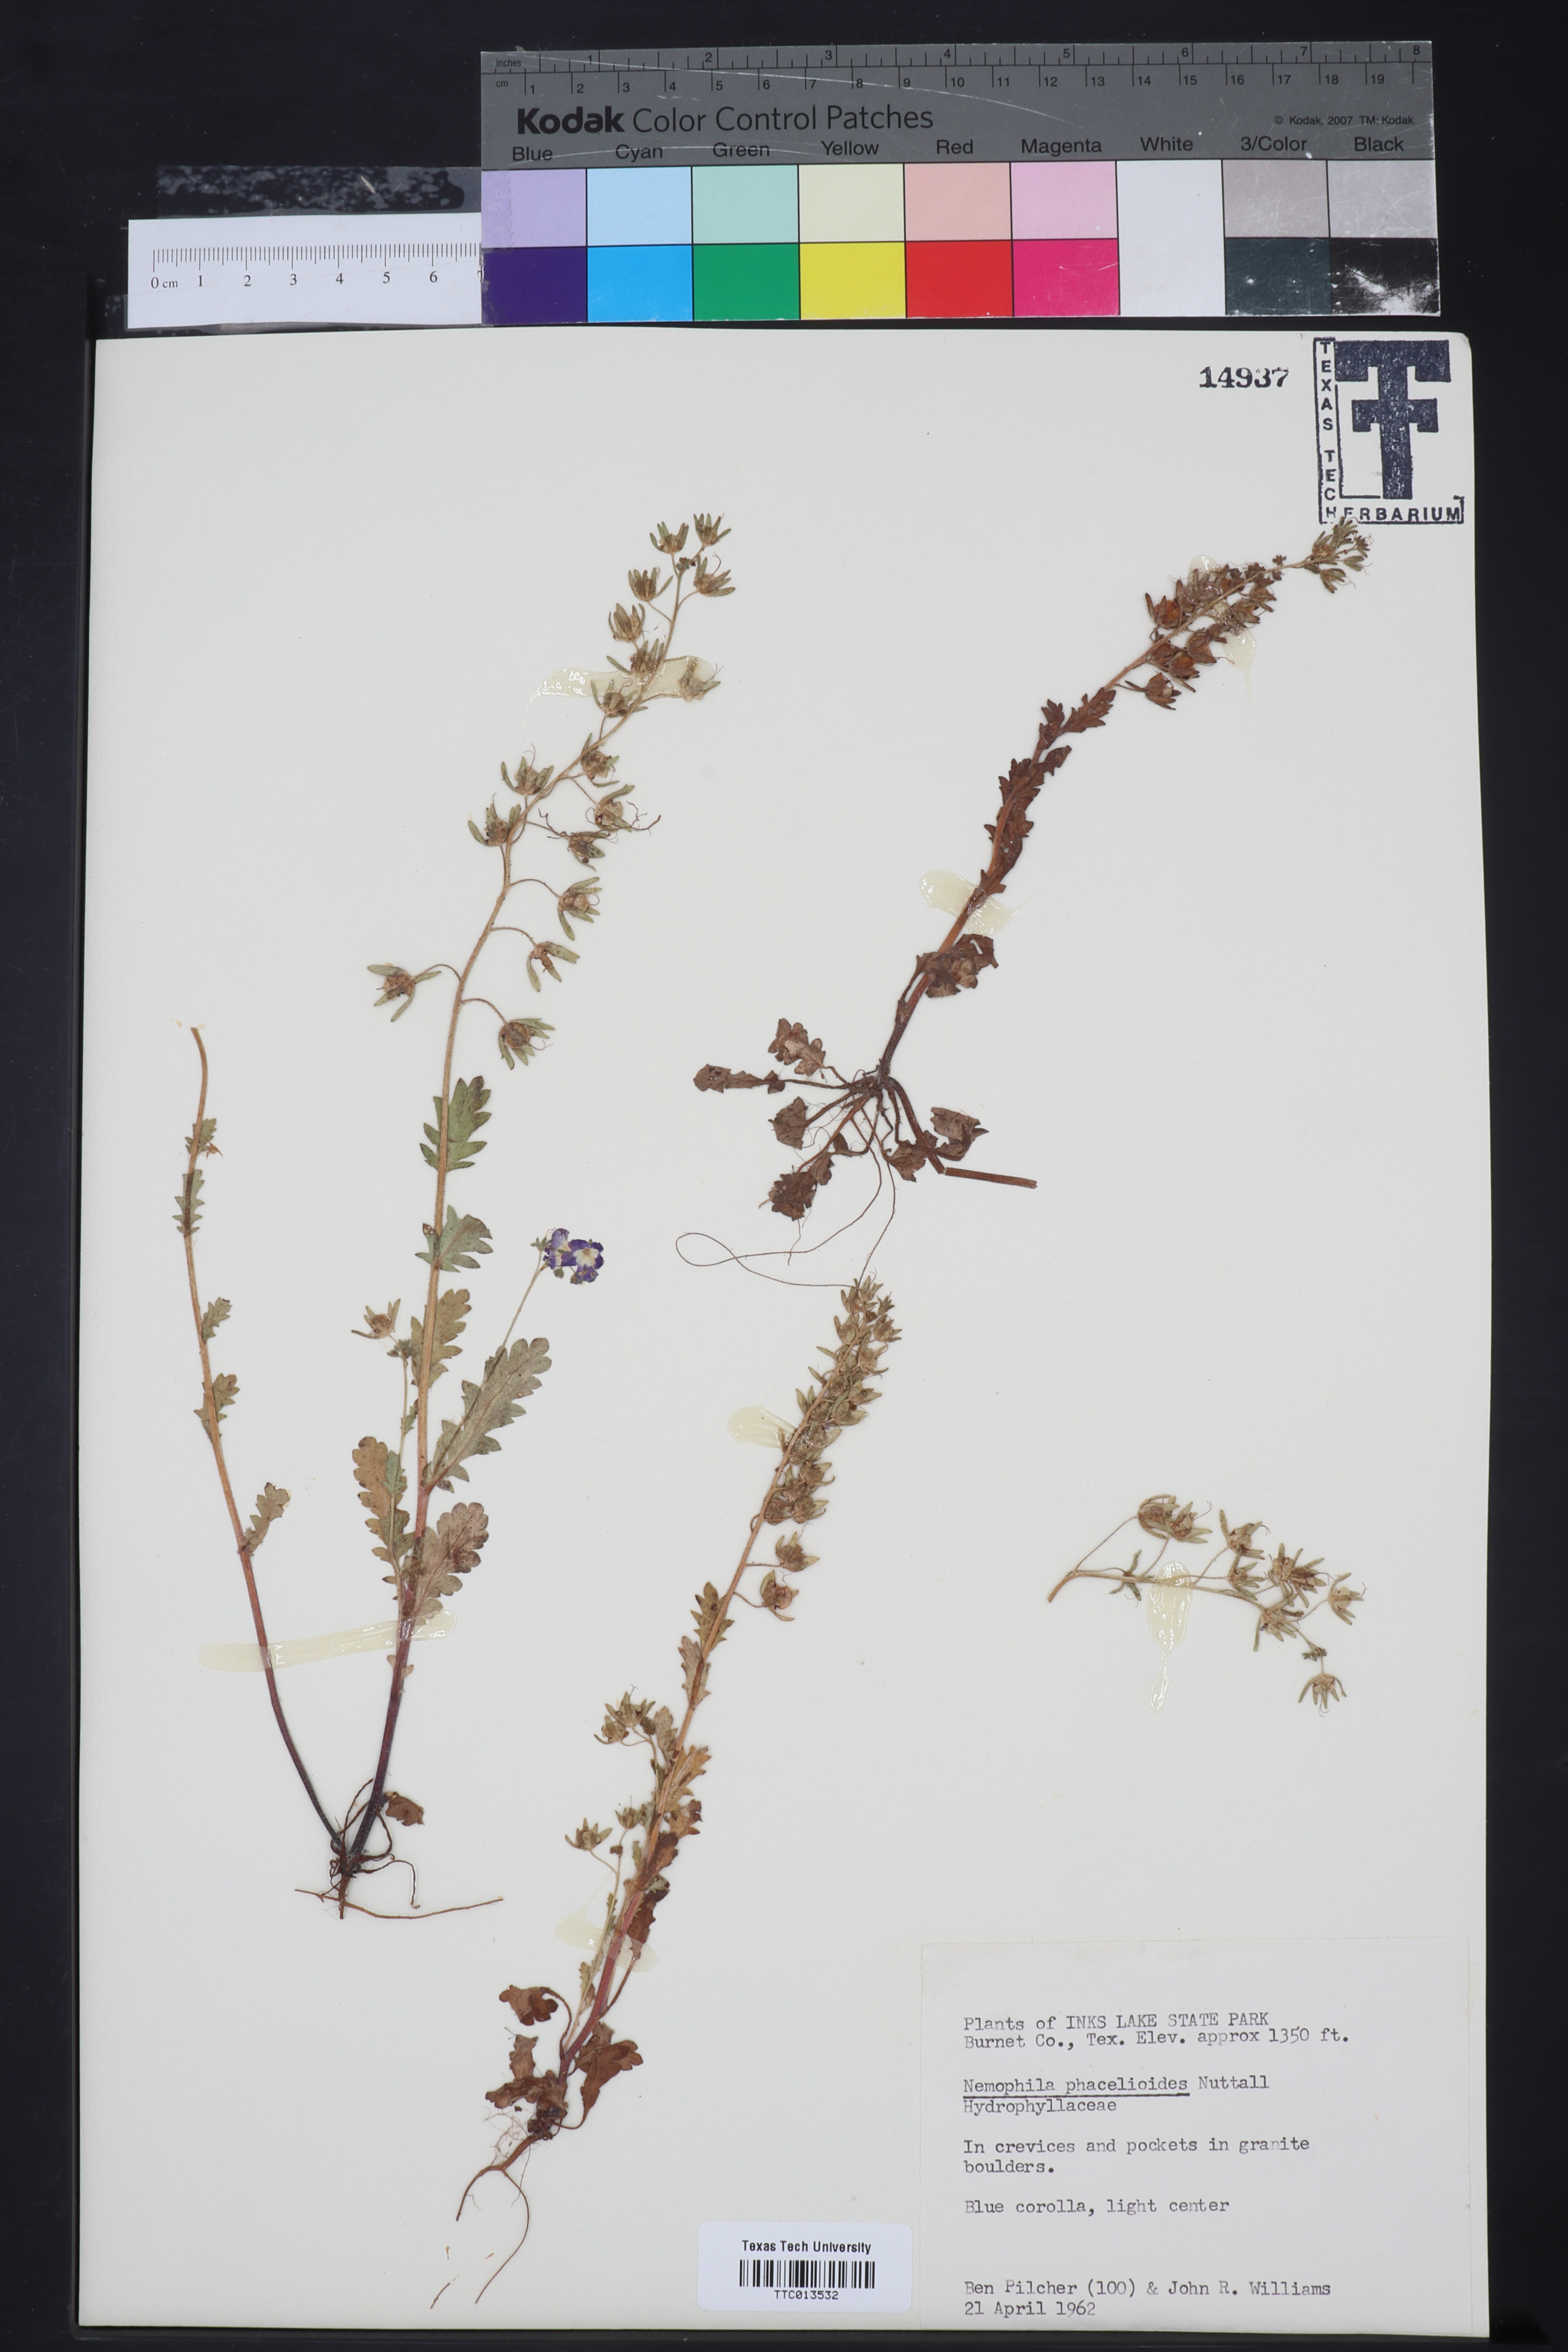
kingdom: Plantae
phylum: Tracheophyta
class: Magnoliopsida
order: Boraginales
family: Hydrophyllaceae
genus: Nemophila
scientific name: Nemophila phacelioides
